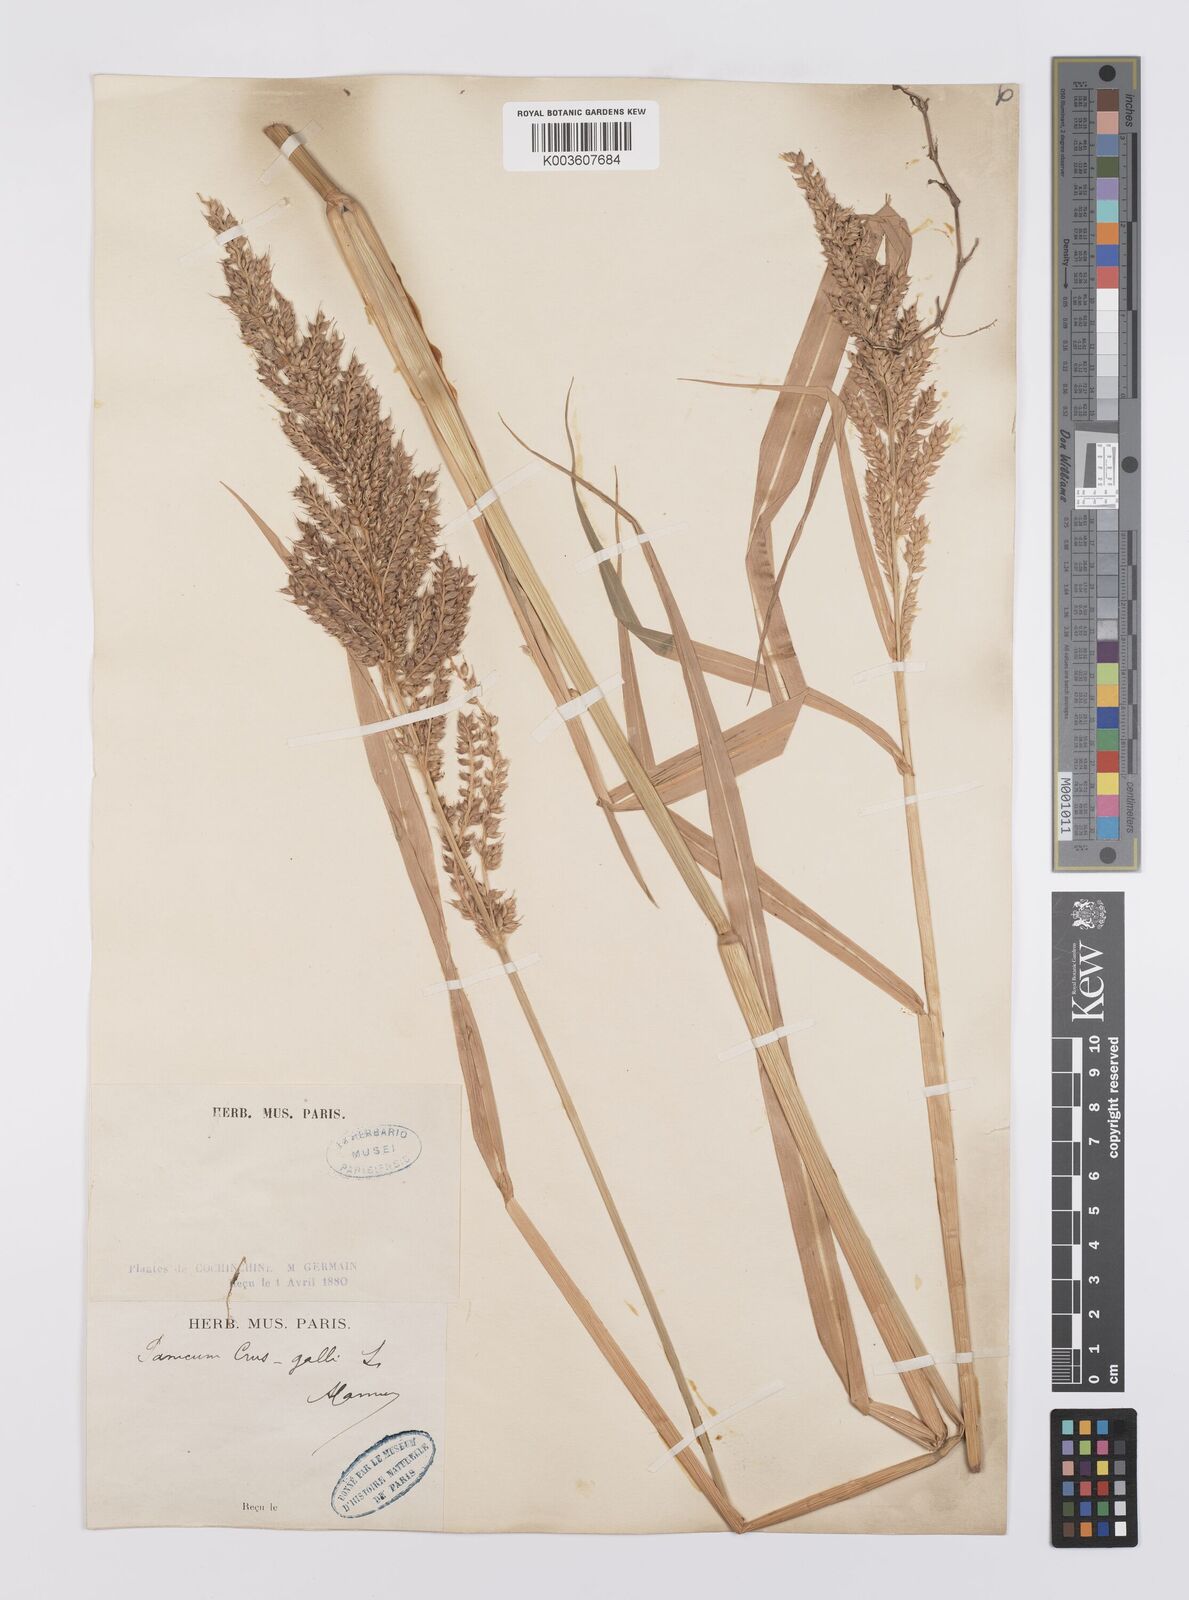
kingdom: Plantae
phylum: Tracheophyta
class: Liliopsida
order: Poales
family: Poaceae
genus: Echinochloa
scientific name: Echinochloa crus-galli
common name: Cockspur
